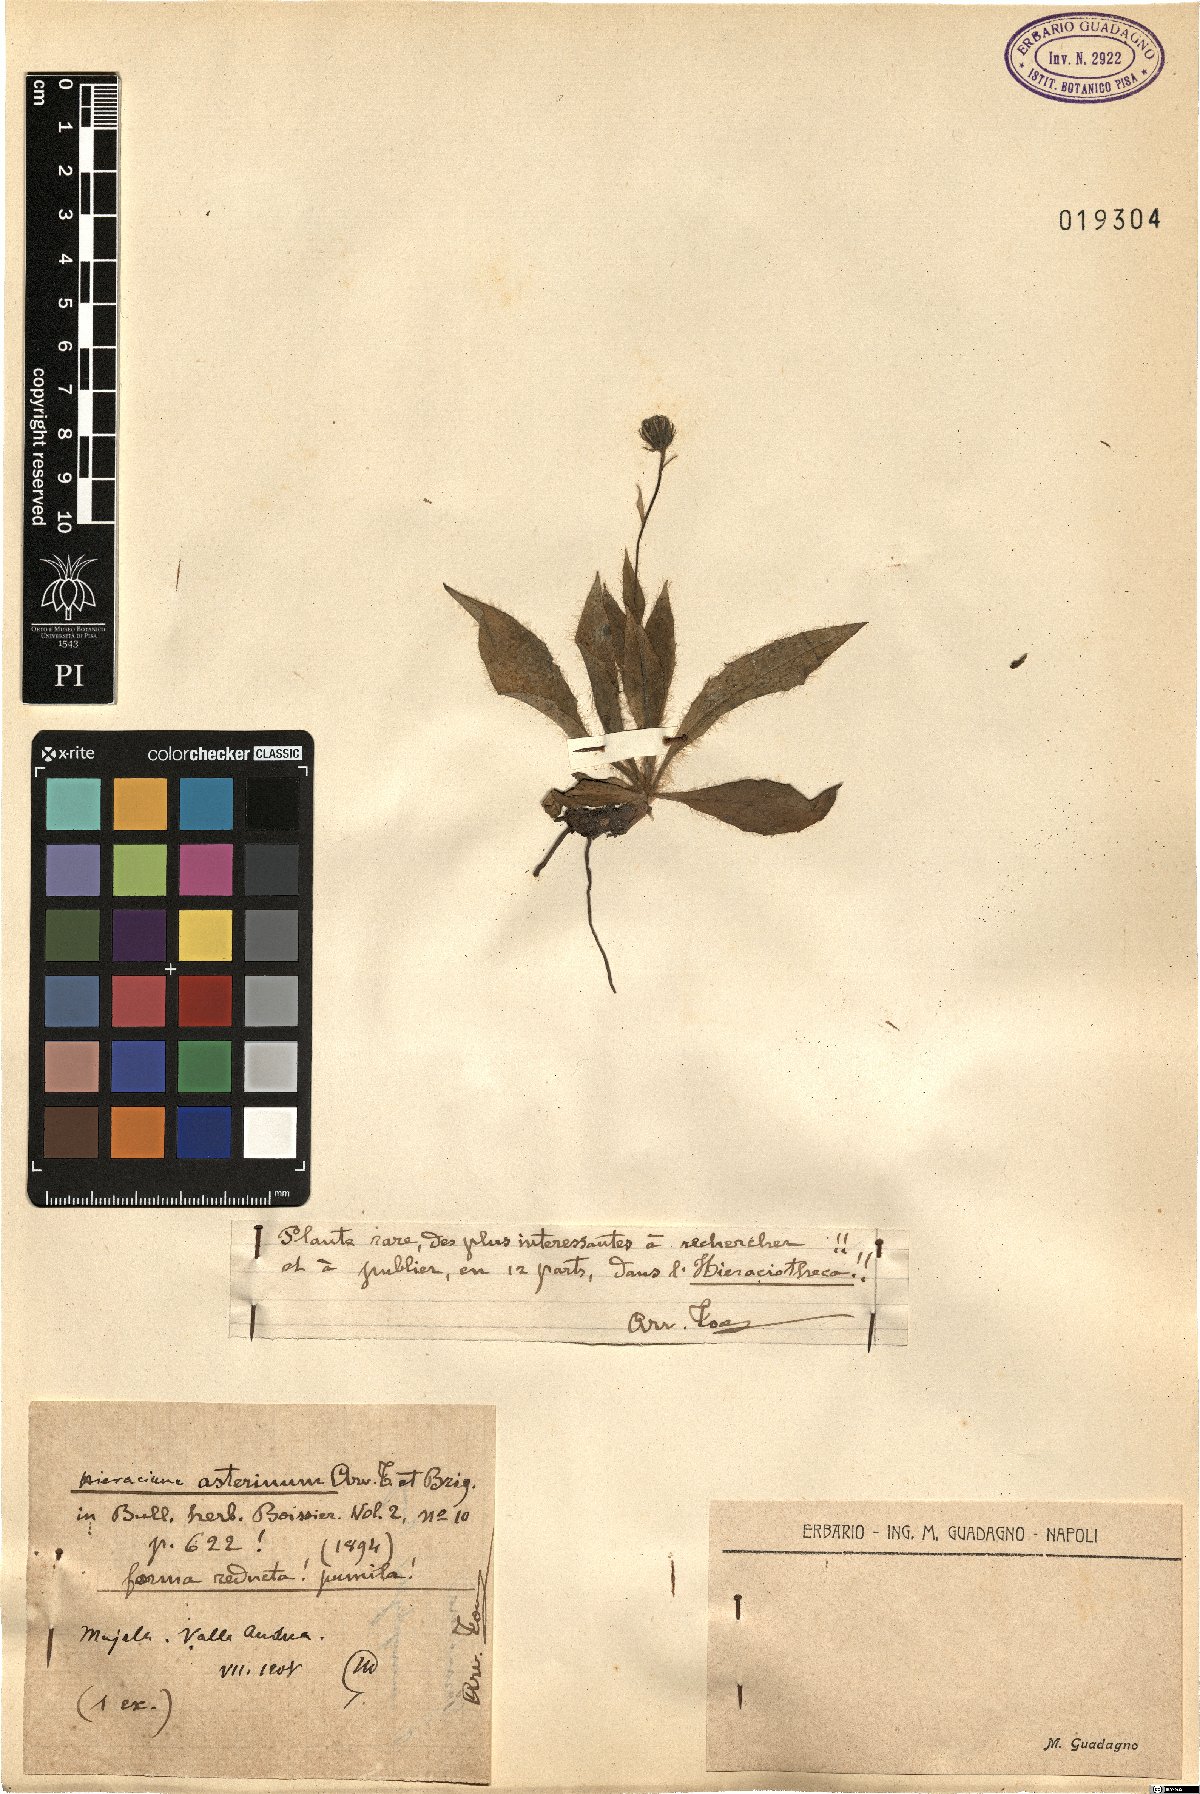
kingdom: Plantae
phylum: Tracheophyta
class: Magnoliopsida
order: Asterales
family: Asteraceae
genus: Hieracium
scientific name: Hieracium leucophaeum
